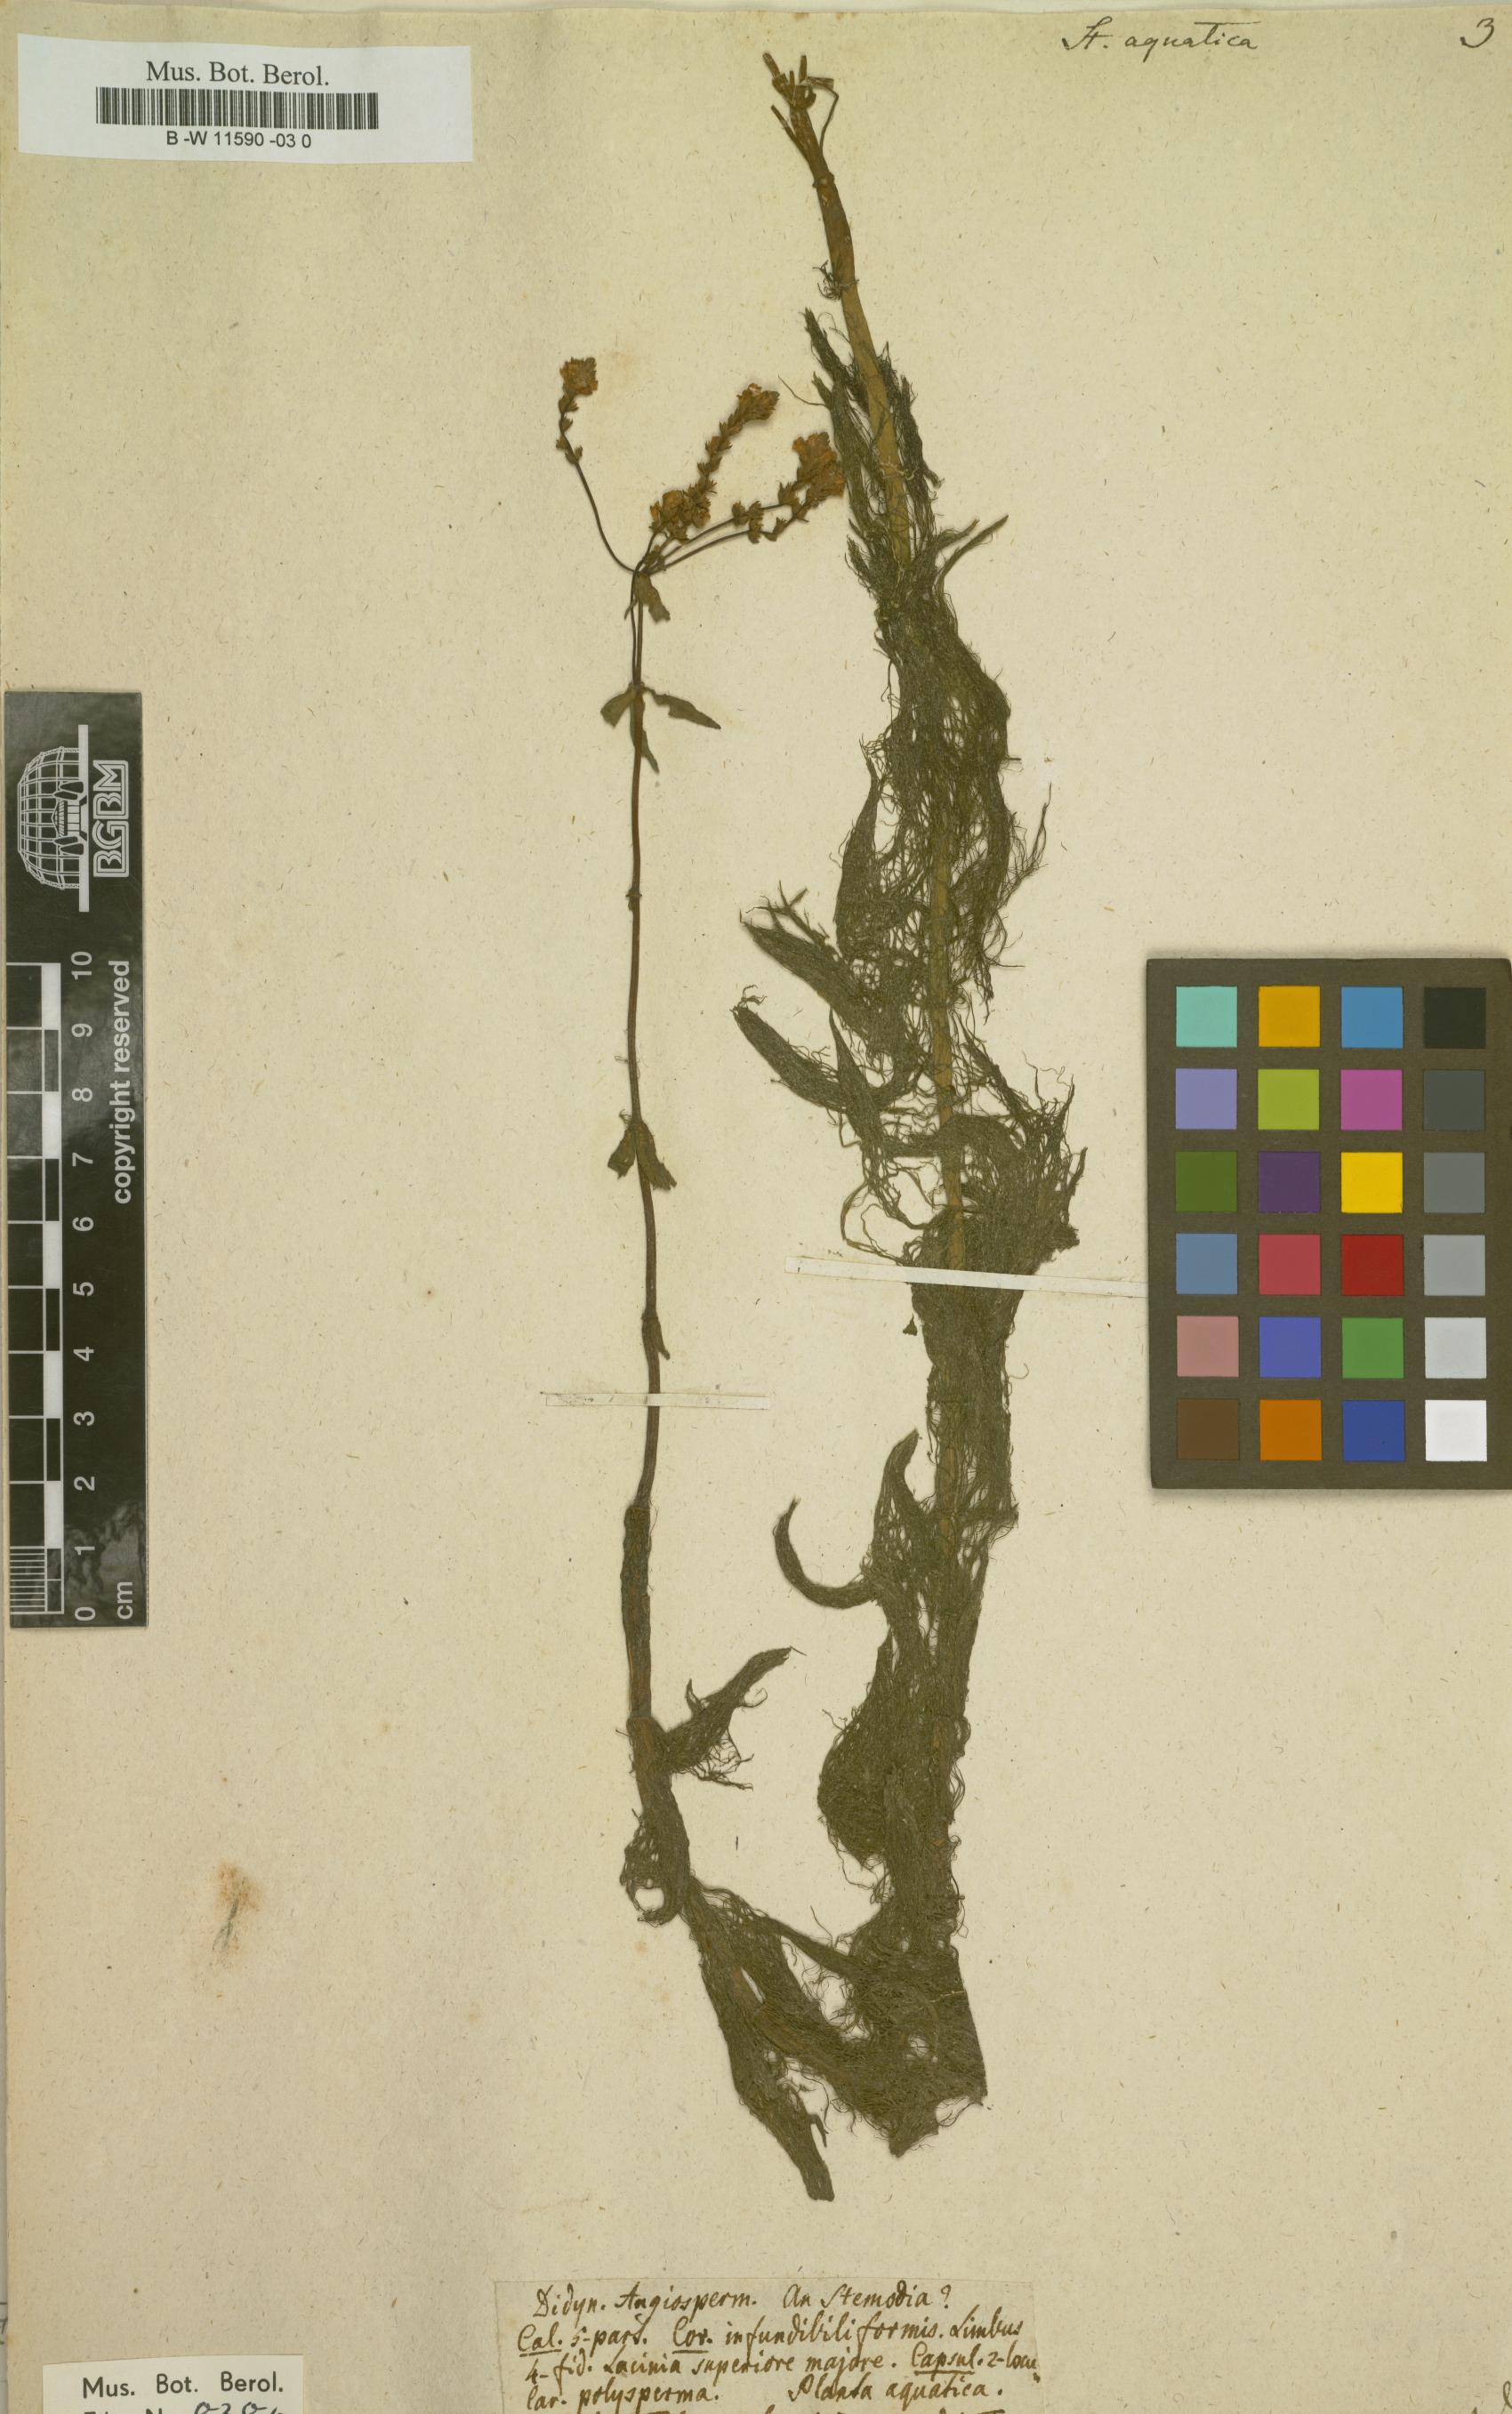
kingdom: Plantae
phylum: Tracheophyta
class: Magnoliopsida
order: Lamiales
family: Plantaginaceae
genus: Limnophila
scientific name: Limnophila polystachya
